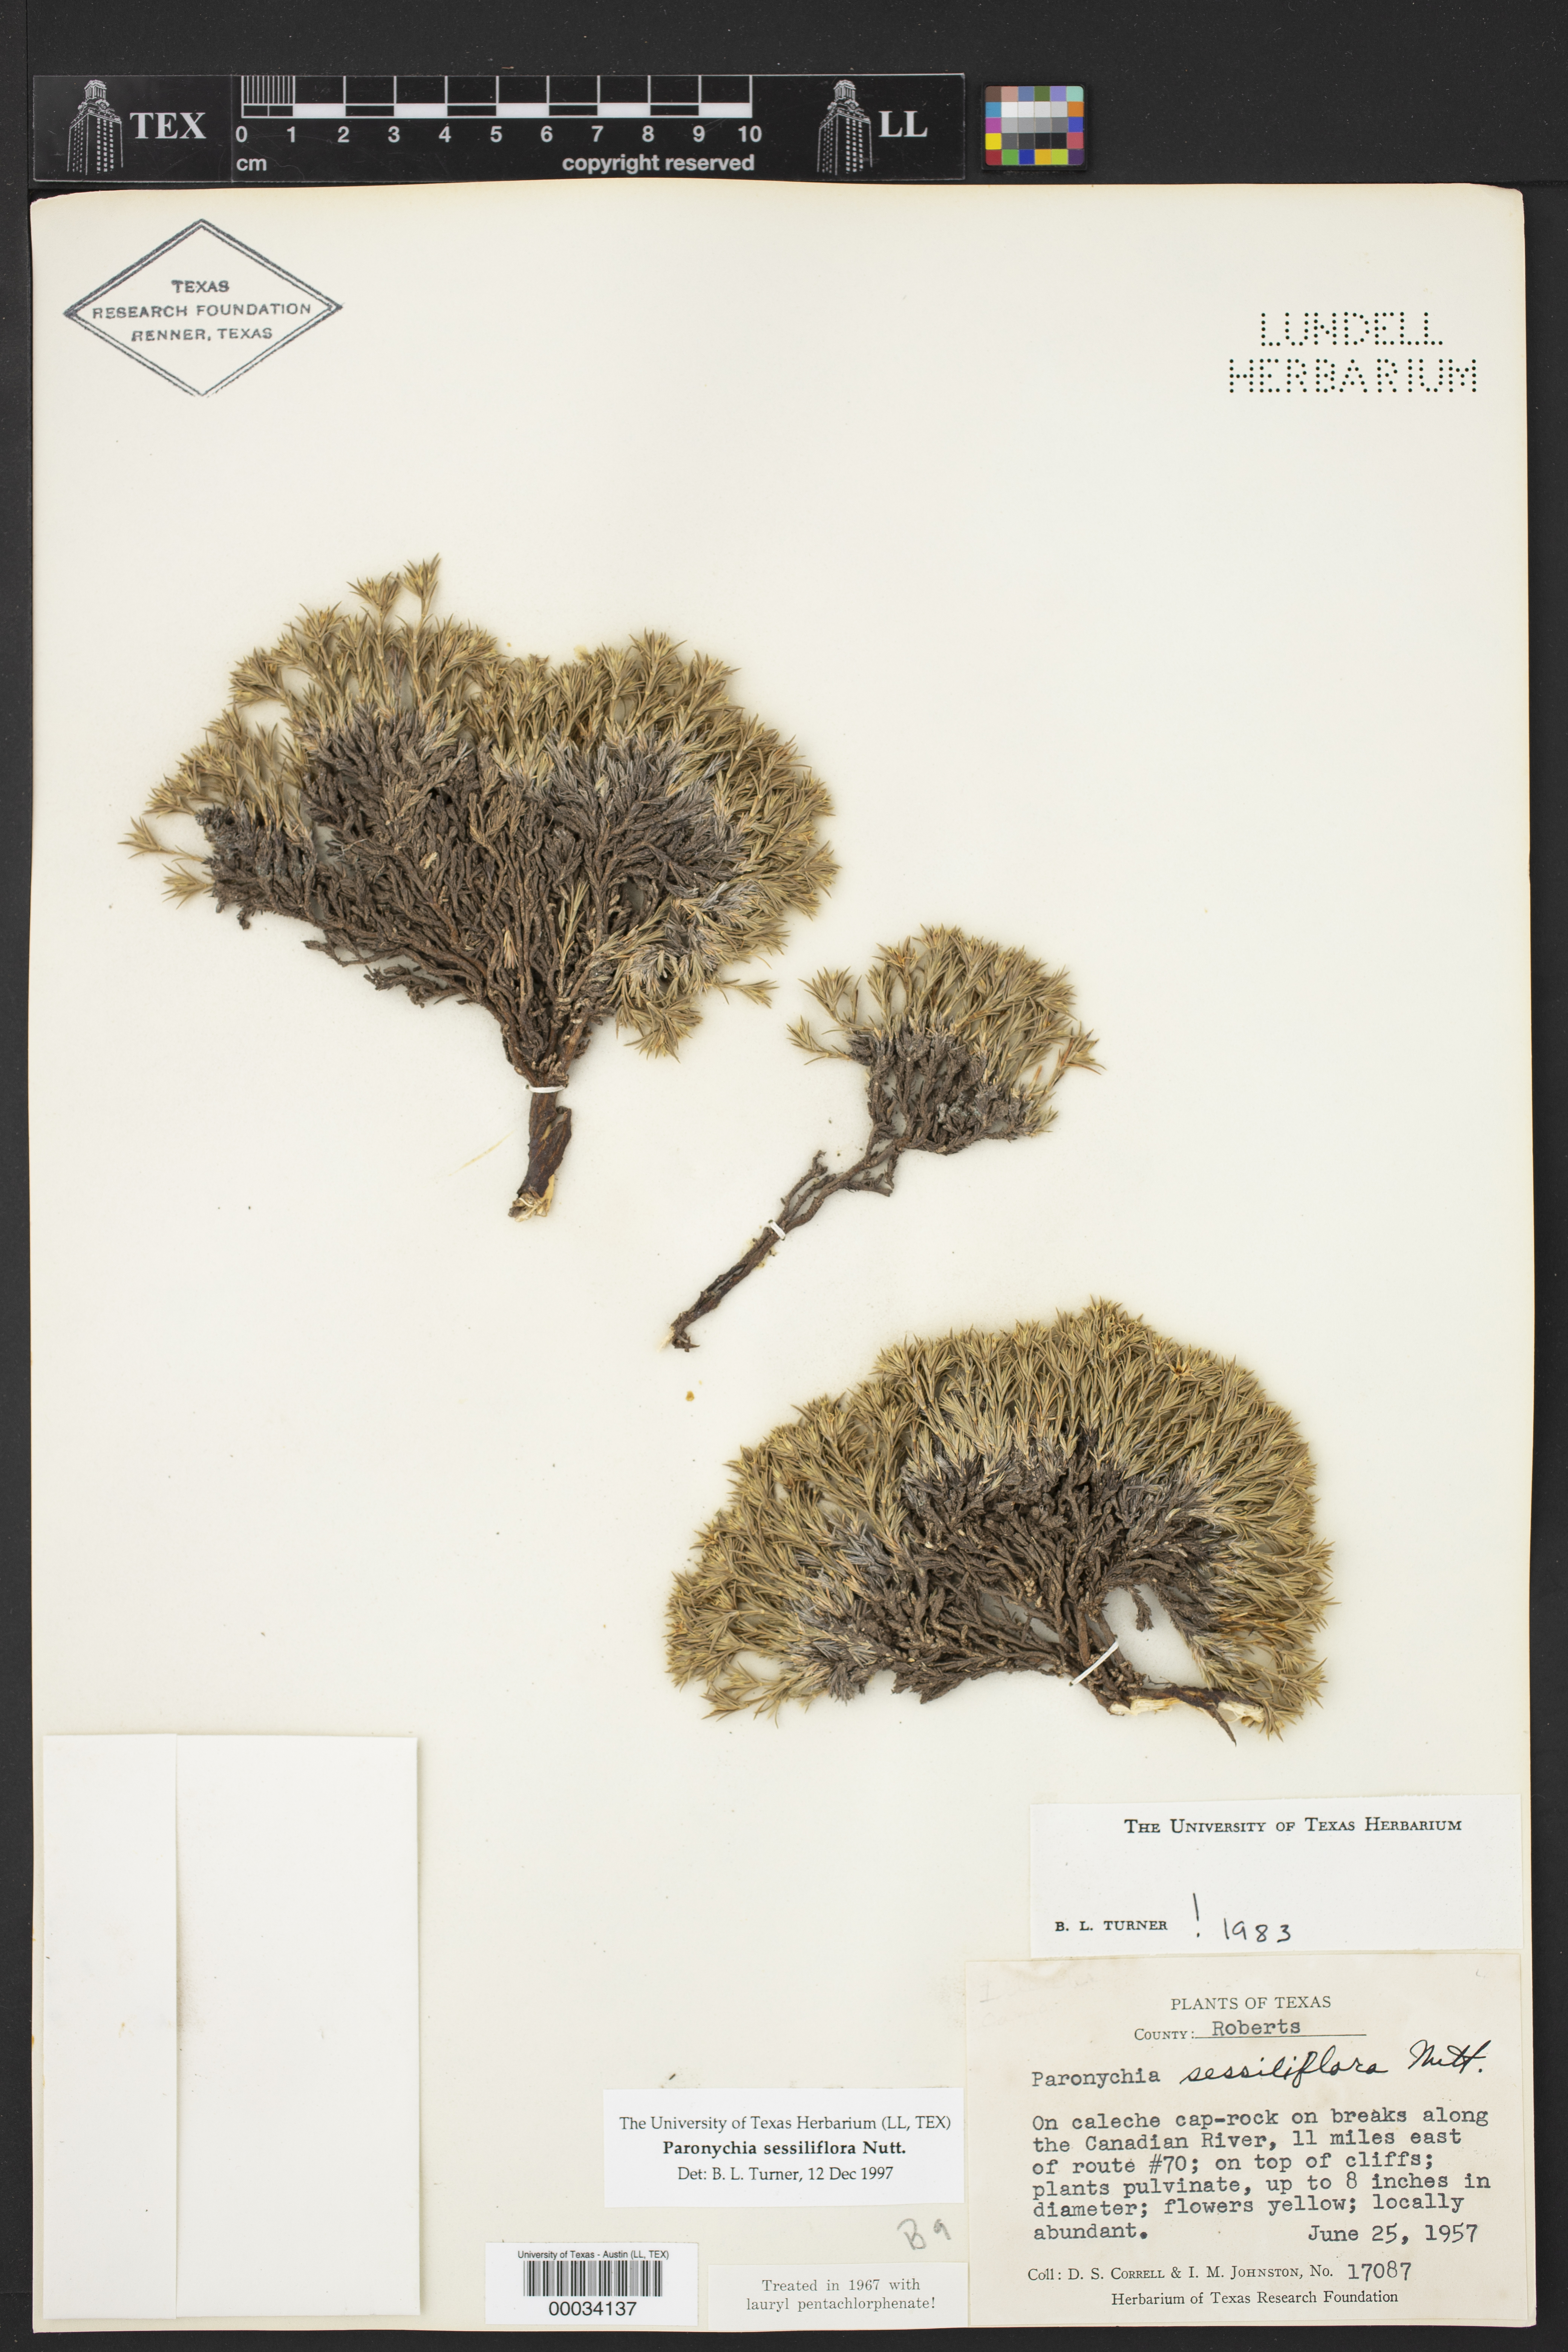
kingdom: Plantae
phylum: Tracheophyta
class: Magnoliopsida
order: Caryophyllales
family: Caryophyllaceae
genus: Paronychia
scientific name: Paronychia sessiliflora
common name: Creeping nailwort
